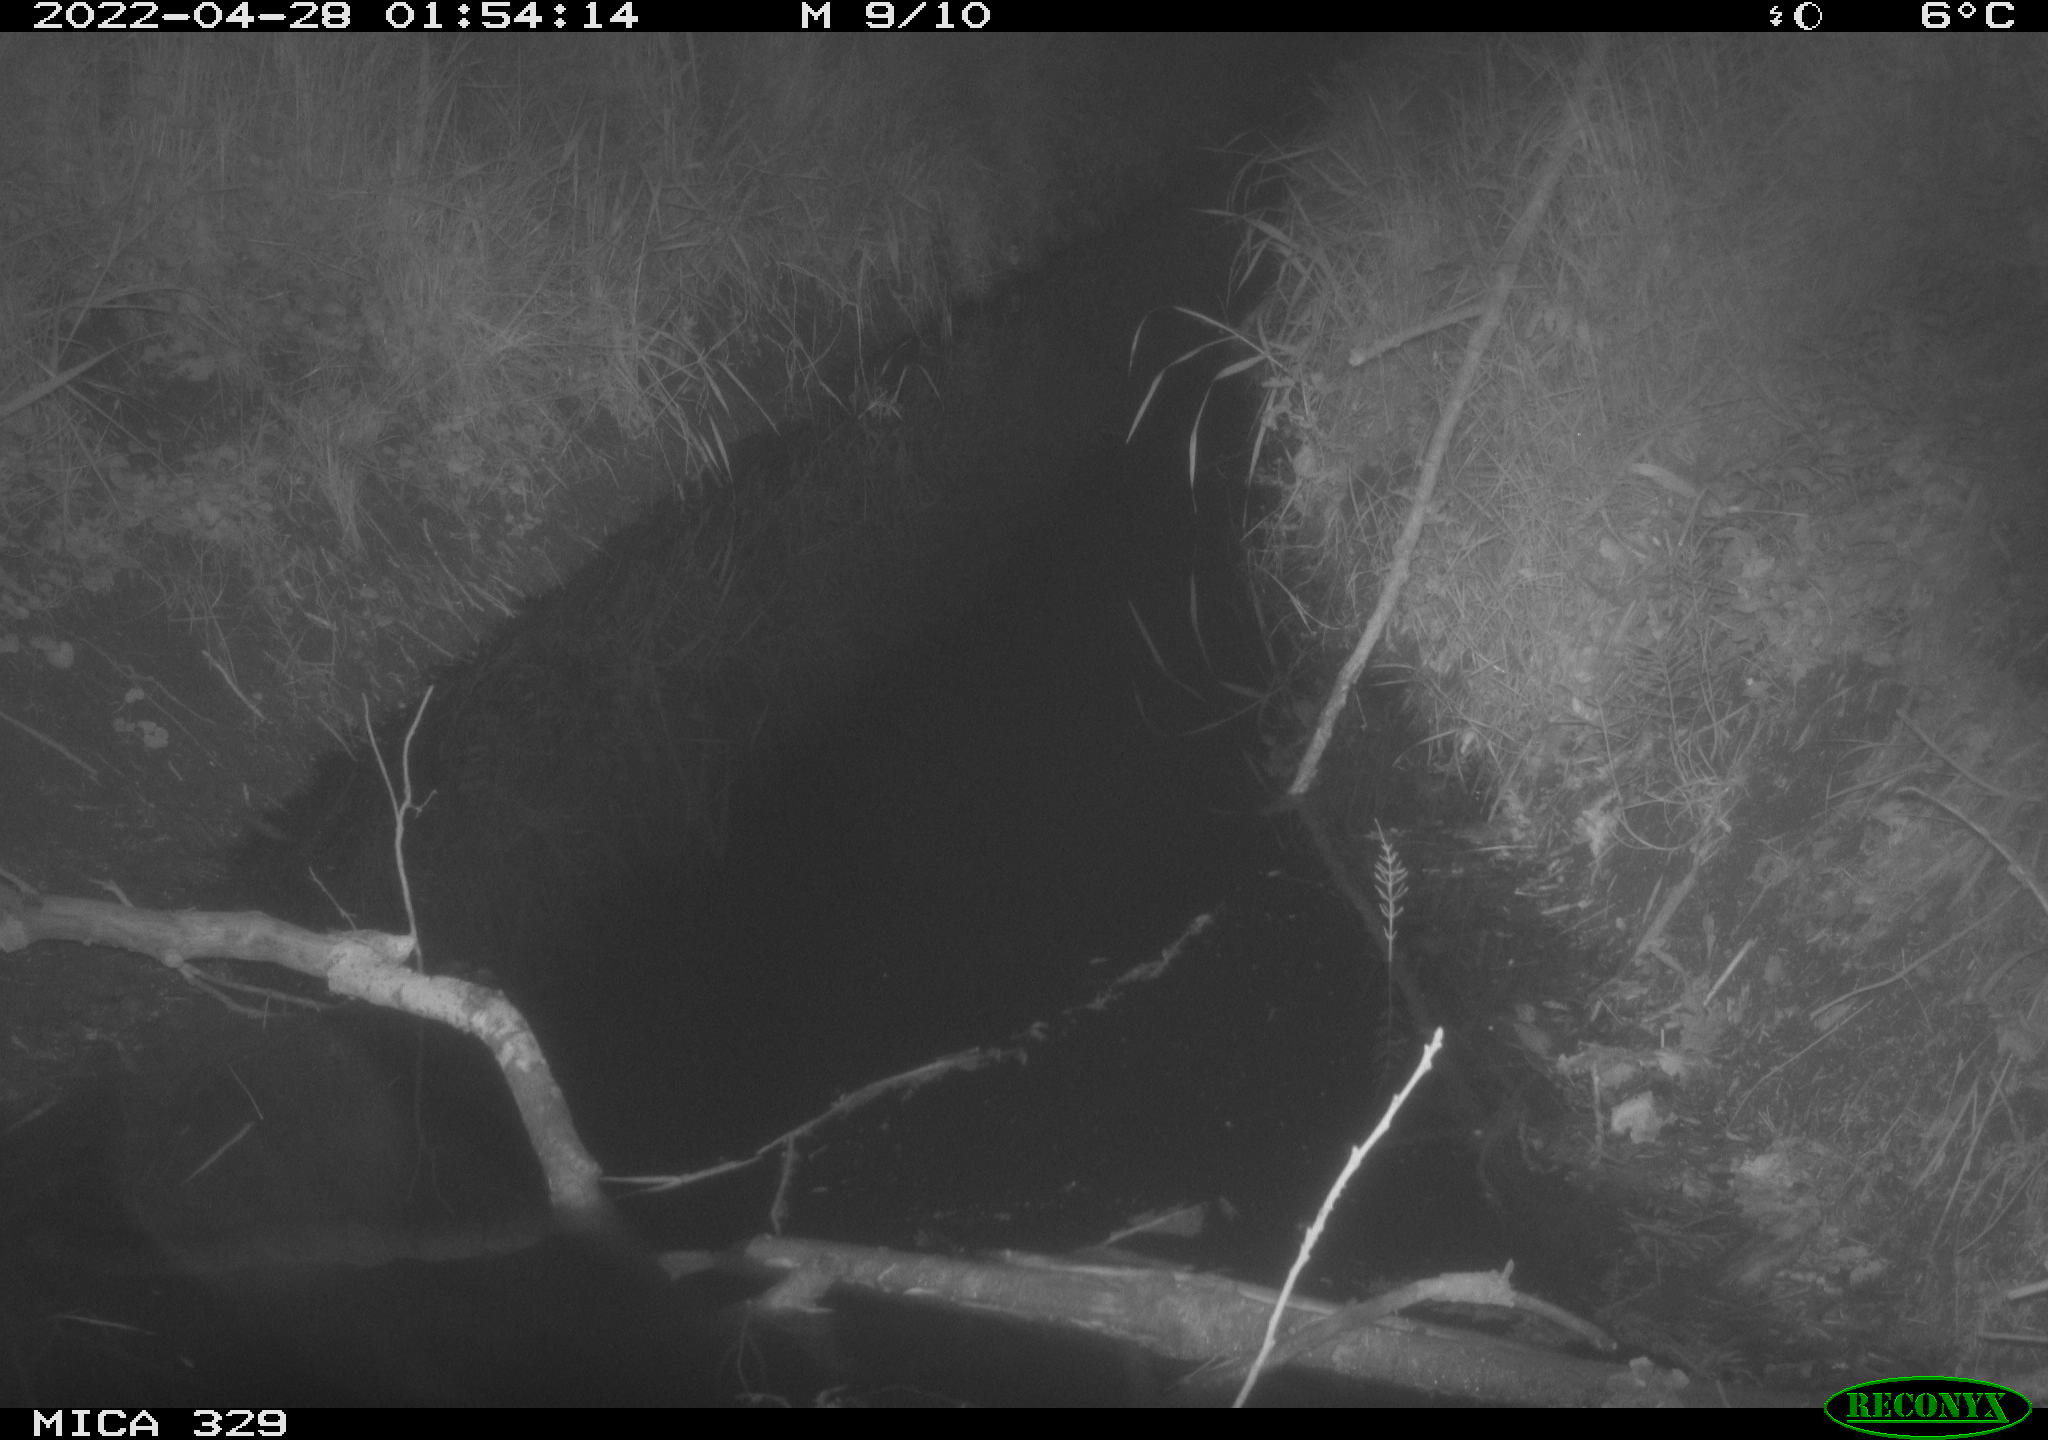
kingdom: Animalia
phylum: Chordata
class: Mammalia
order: Rodentia
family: Muridae
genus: Apodemus
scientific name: Apodemus sylvaticus
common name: Wood mouse
